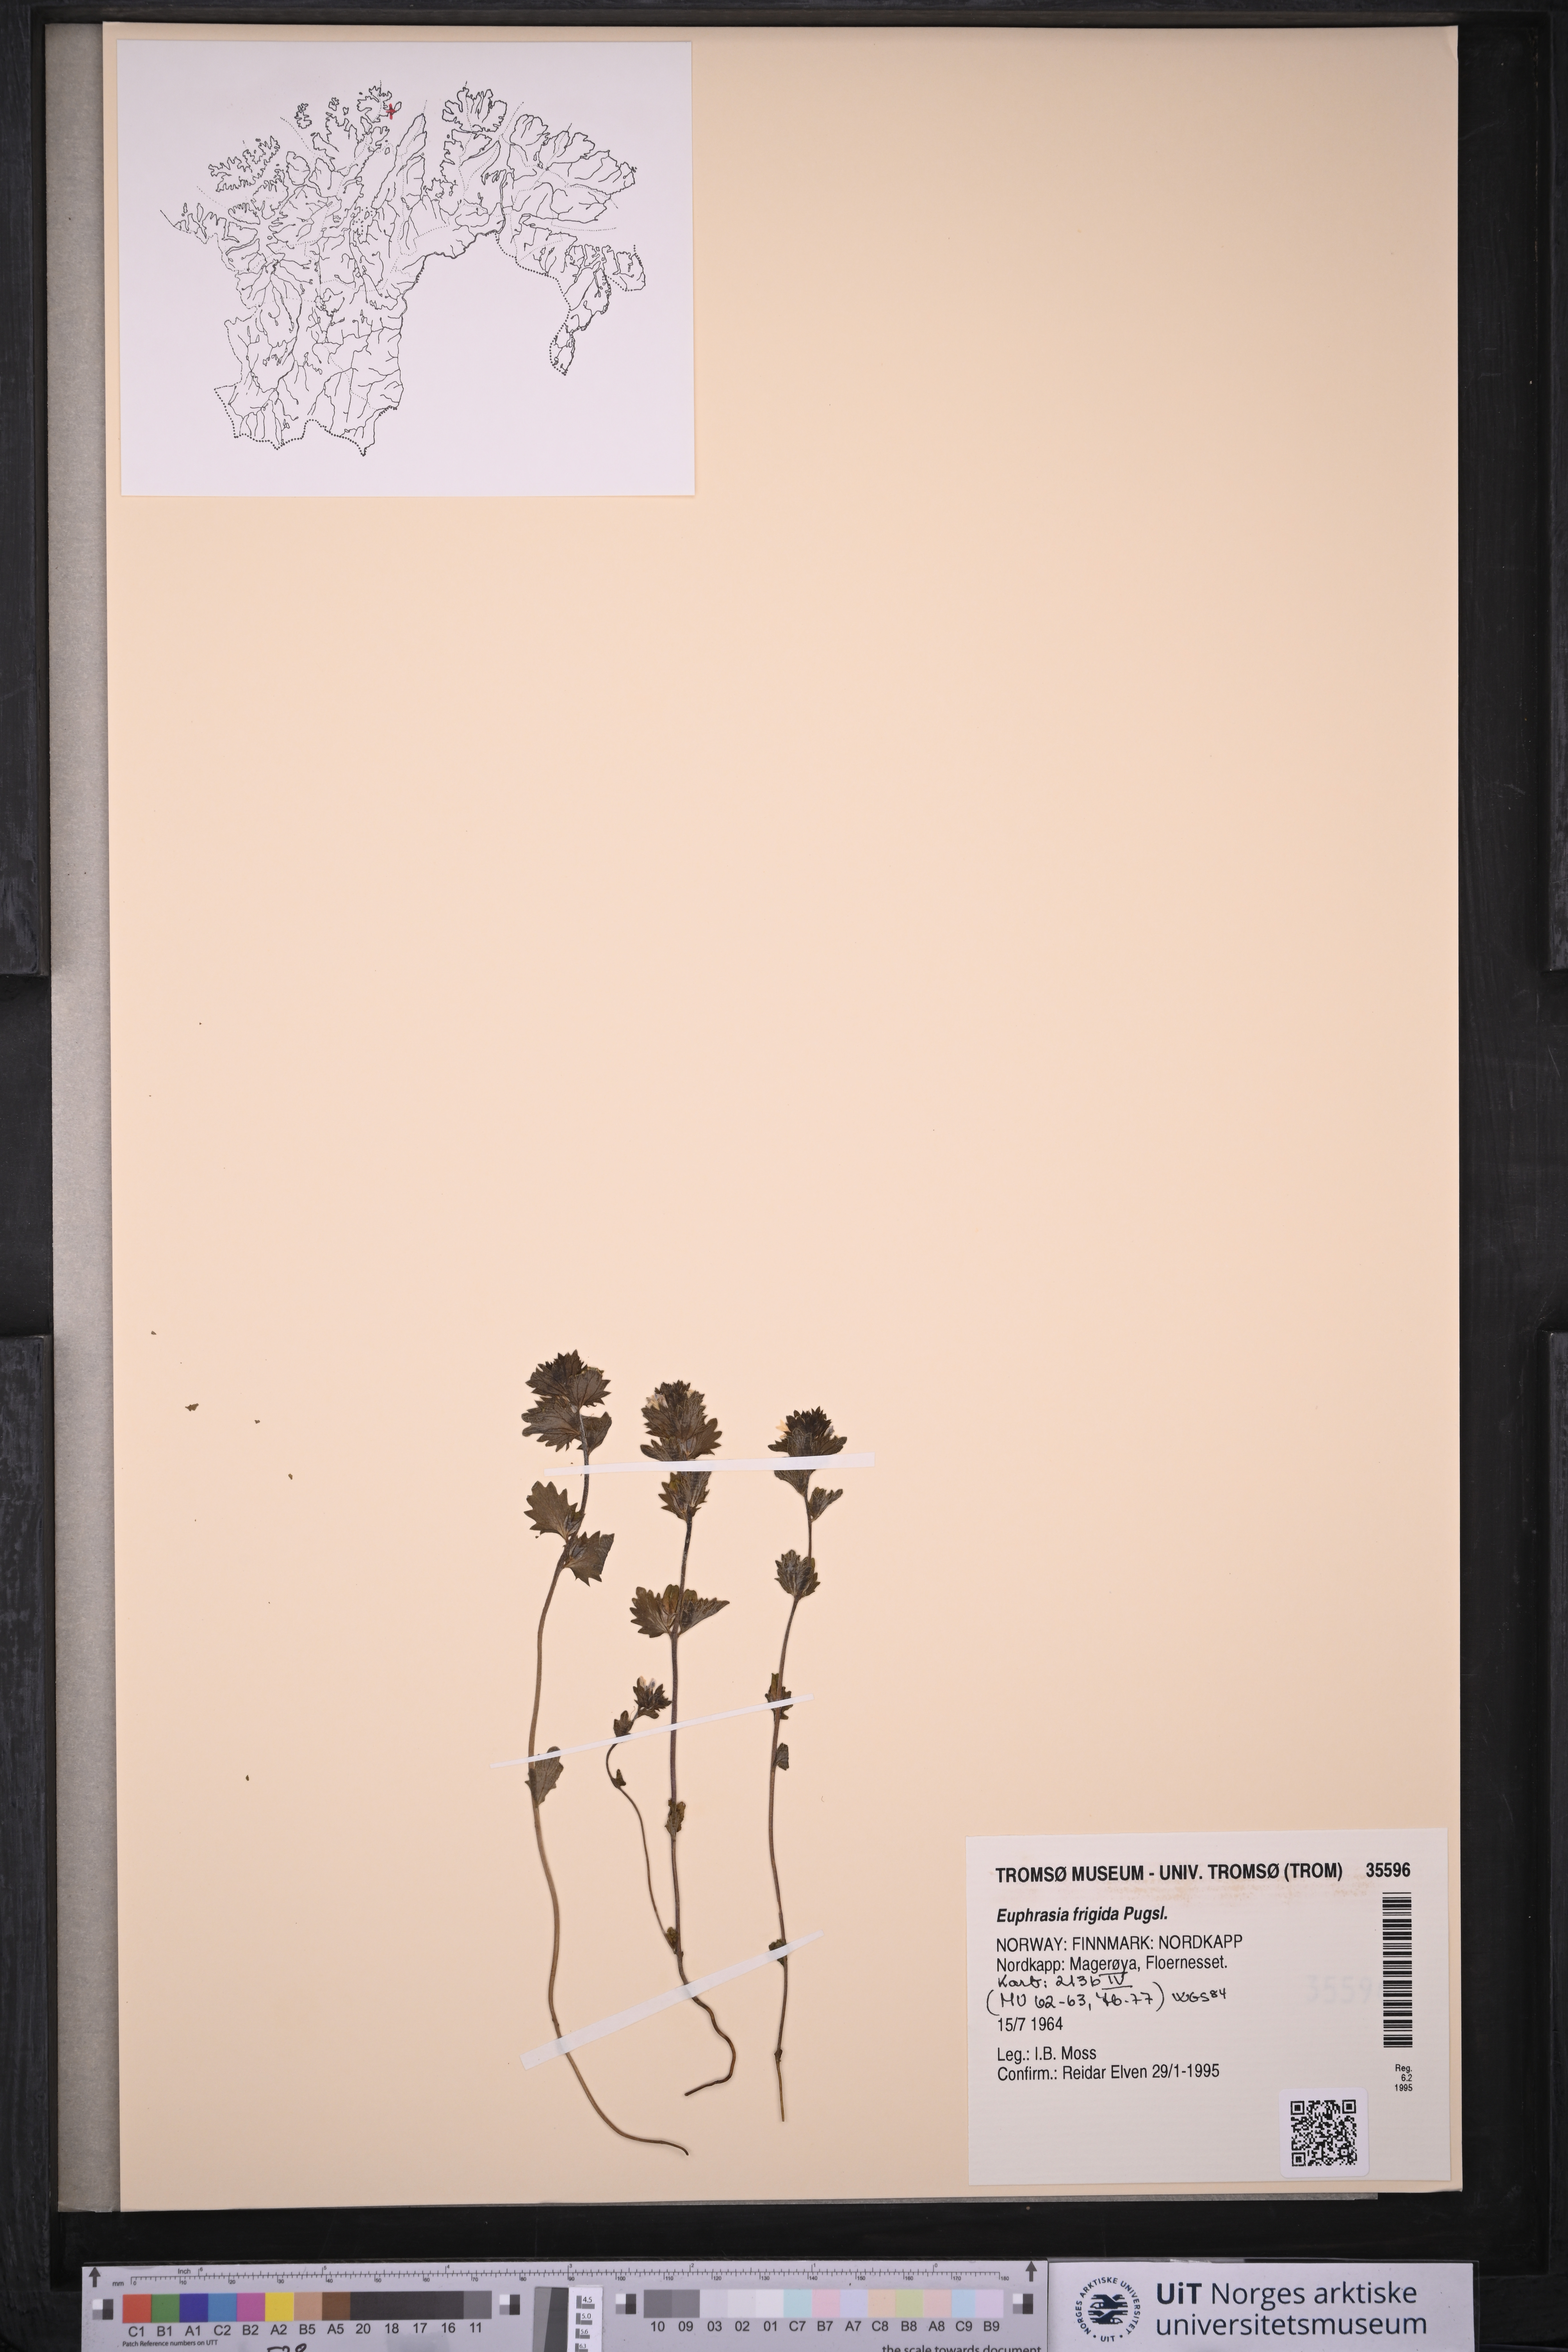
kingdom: Plantae
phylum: Tracheophyta
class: Magnoliopsida
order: Lamiales
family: Orobanchaceae
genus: Euphrasia
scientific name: Euphrasia frigida
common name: An eyebright
